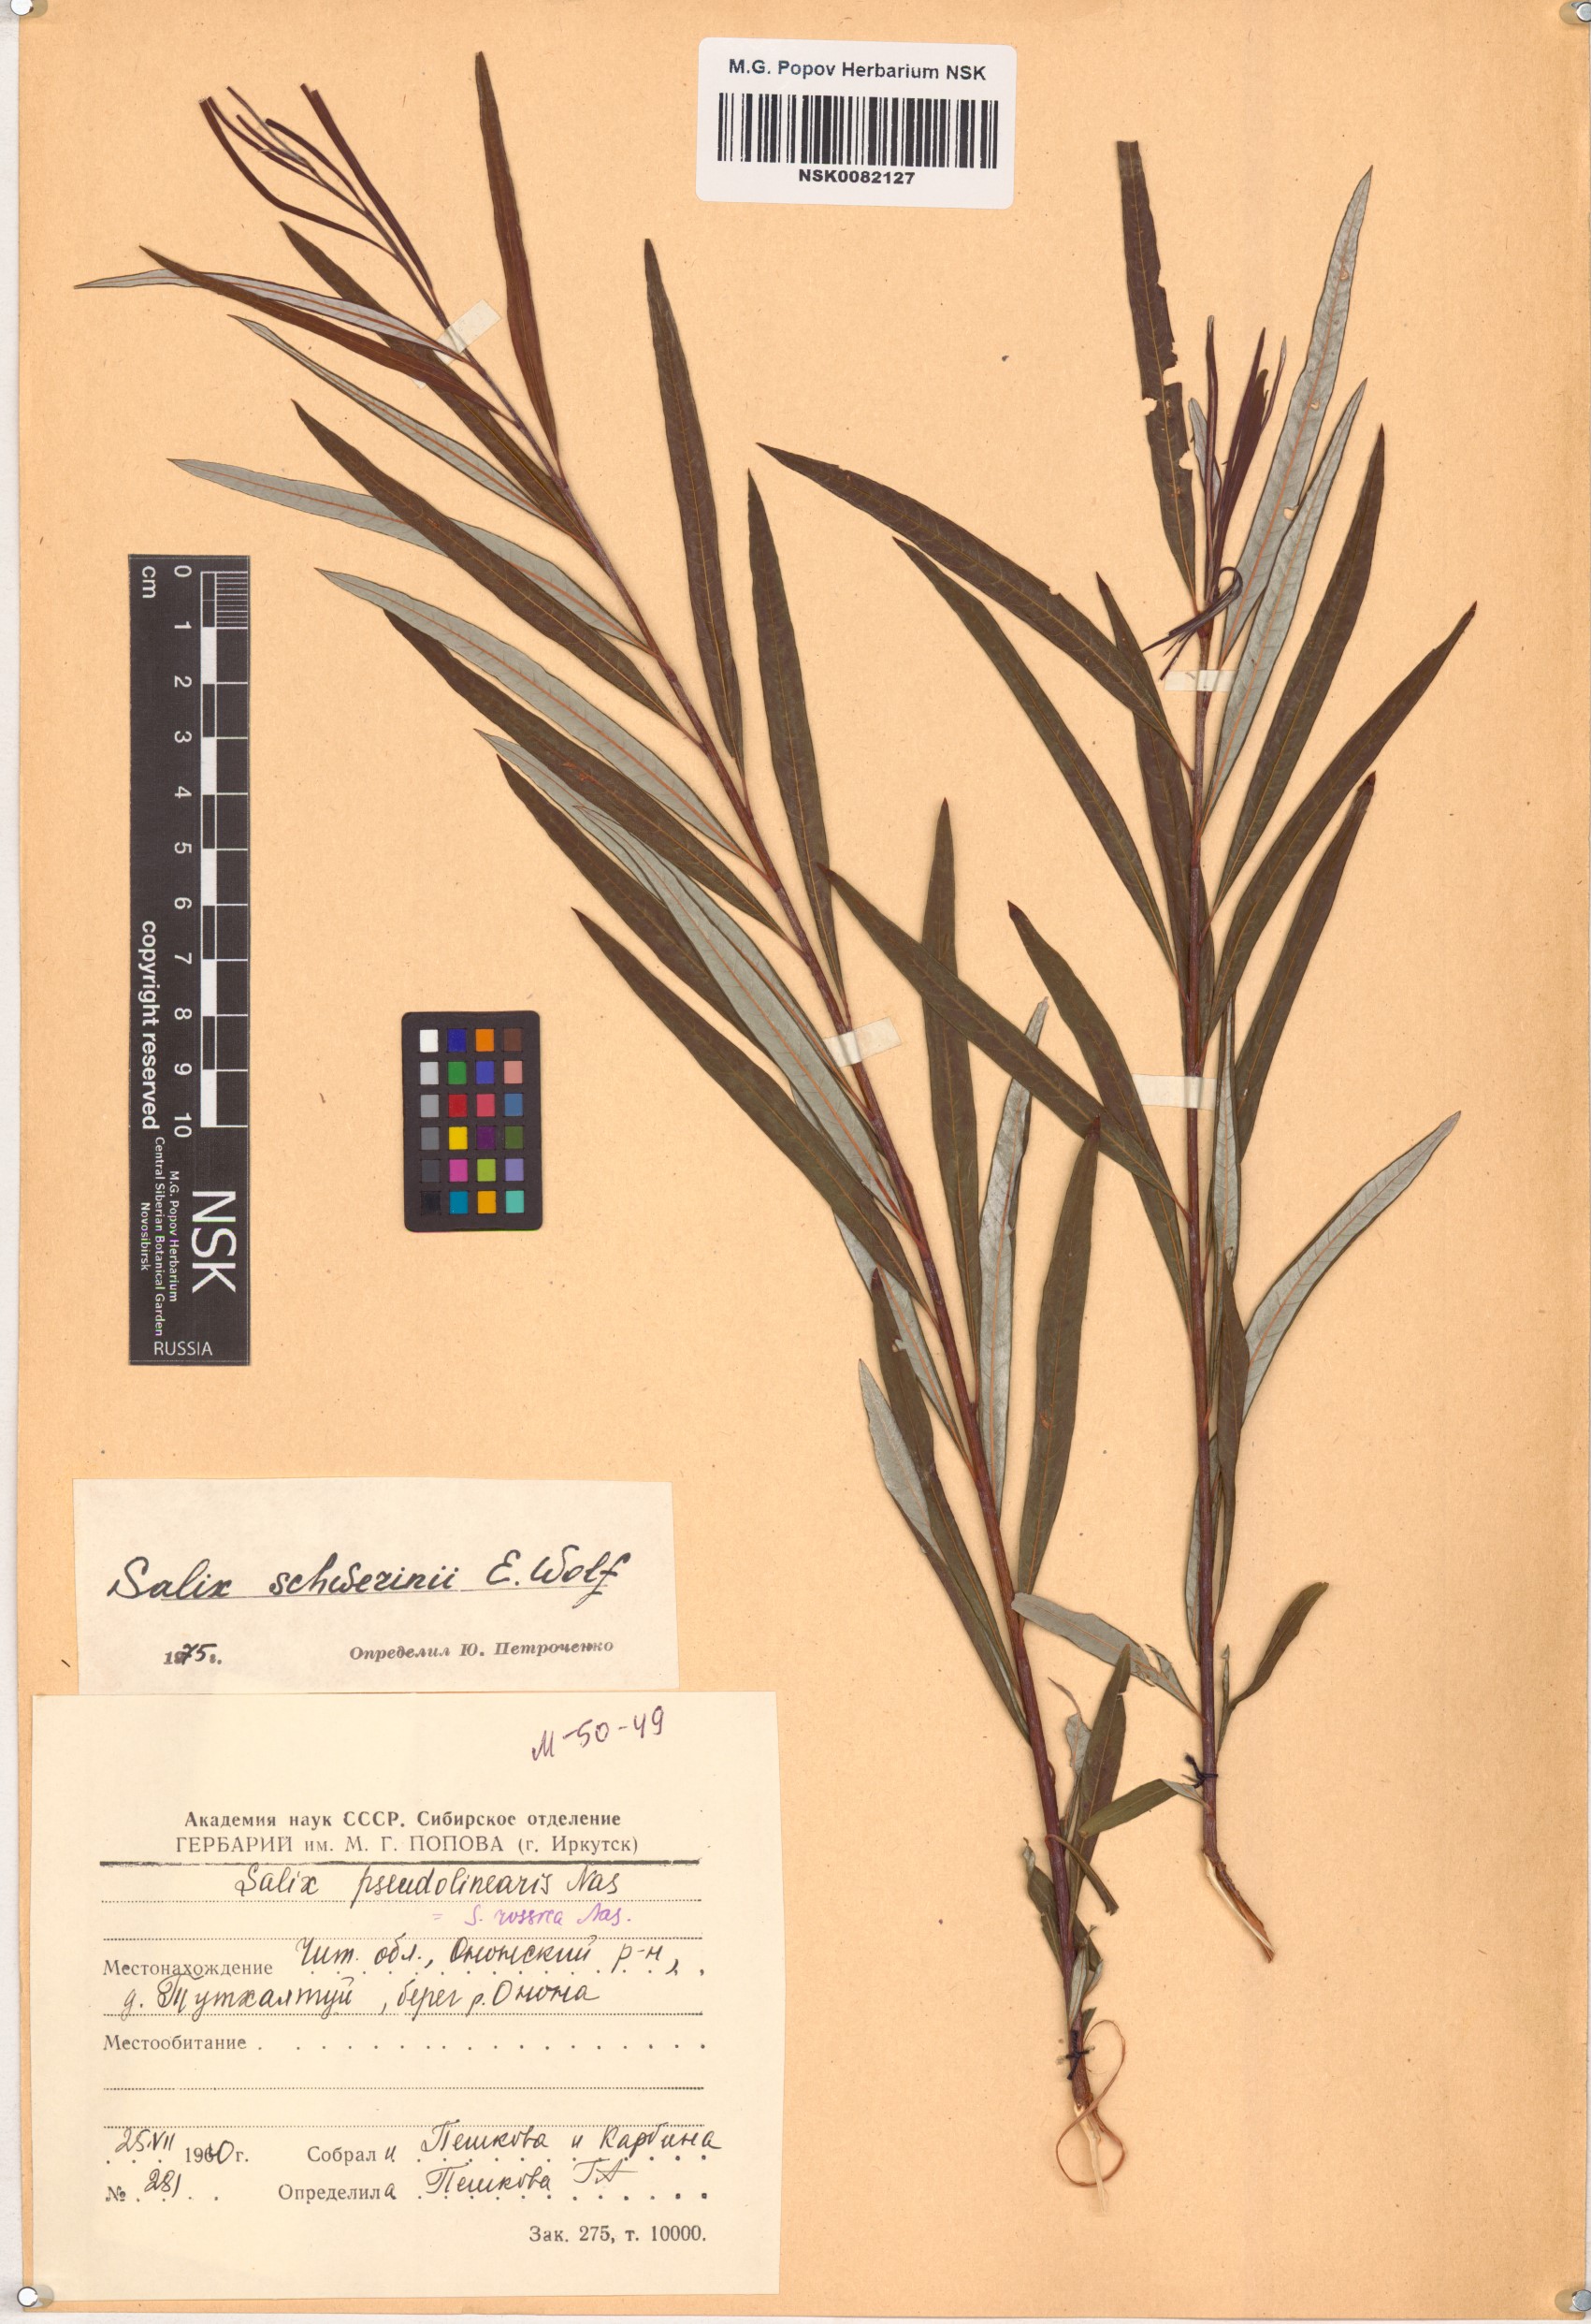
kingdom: Plantae
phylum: Tracheophyta
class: Magnoliopsida
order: Malpighiales
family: Salicaceae
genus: Salix
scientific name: Salix schwerinii
